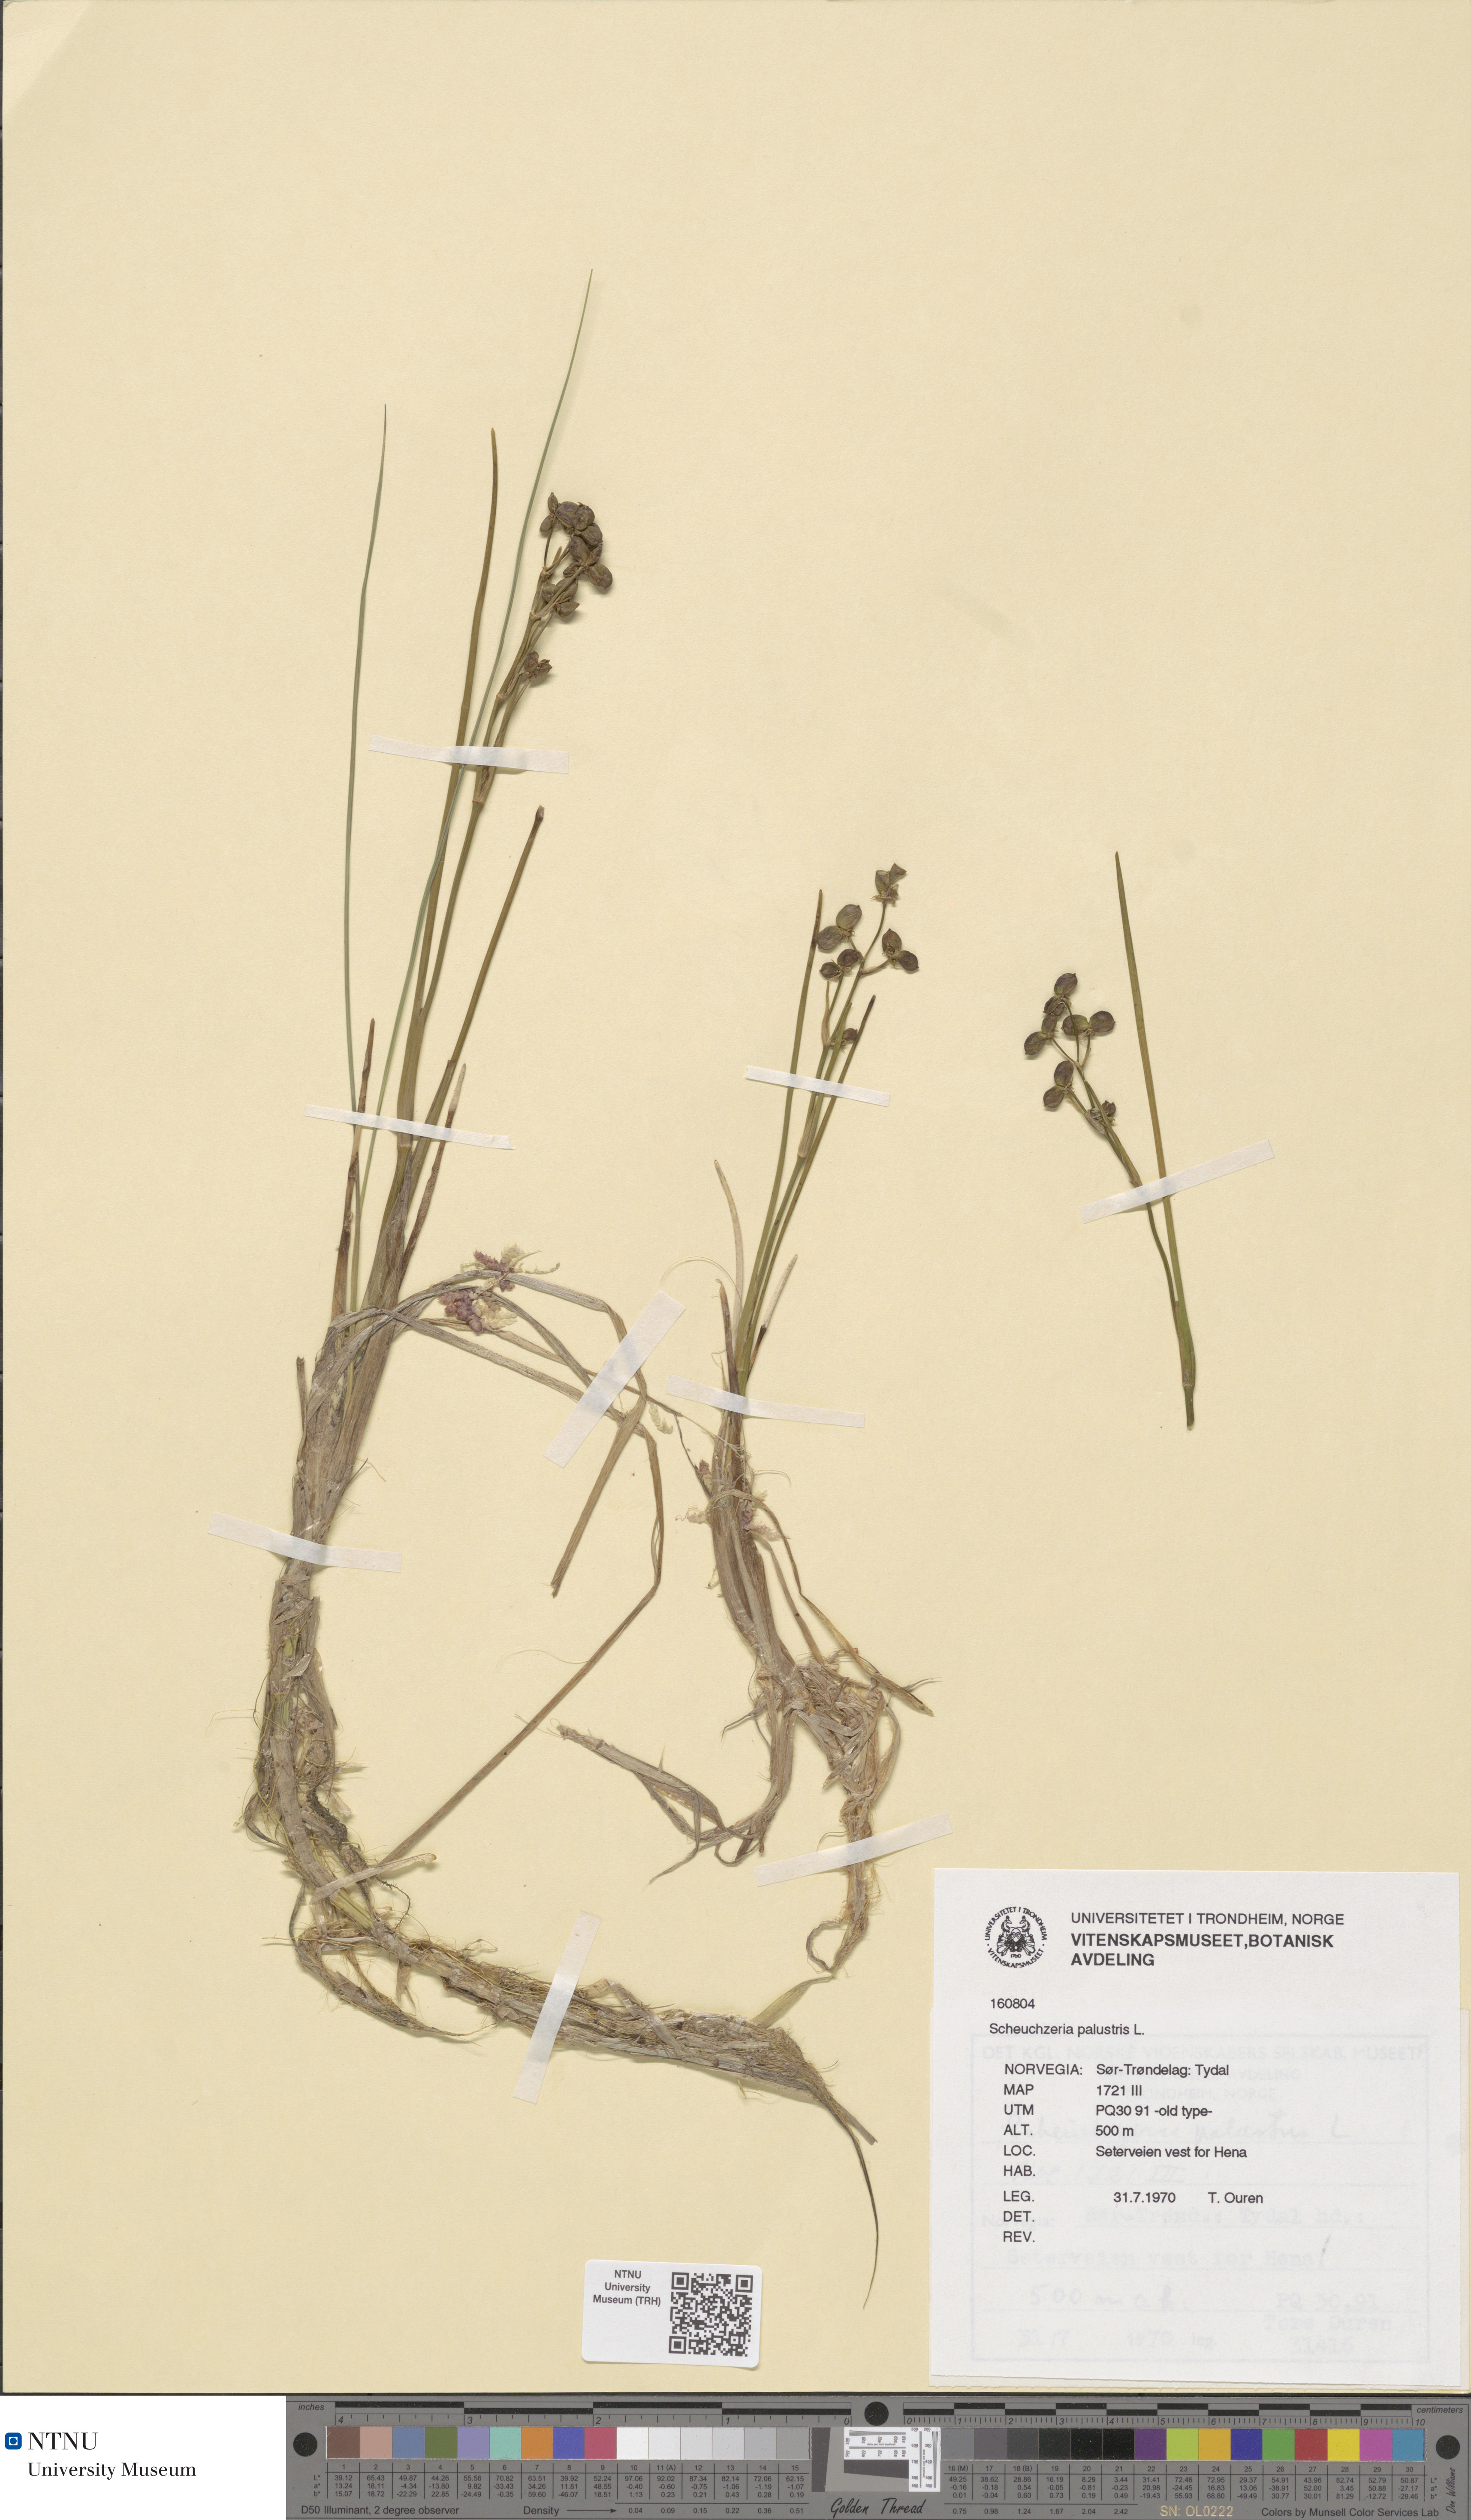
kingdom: Plantae
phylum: Tracheophyta
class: Liliopsida
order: Alismatales
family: Scheuchzeriaceae
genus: Scheuchzeria
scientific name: Scheuchzeria palustris
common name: Rannoch-rush
